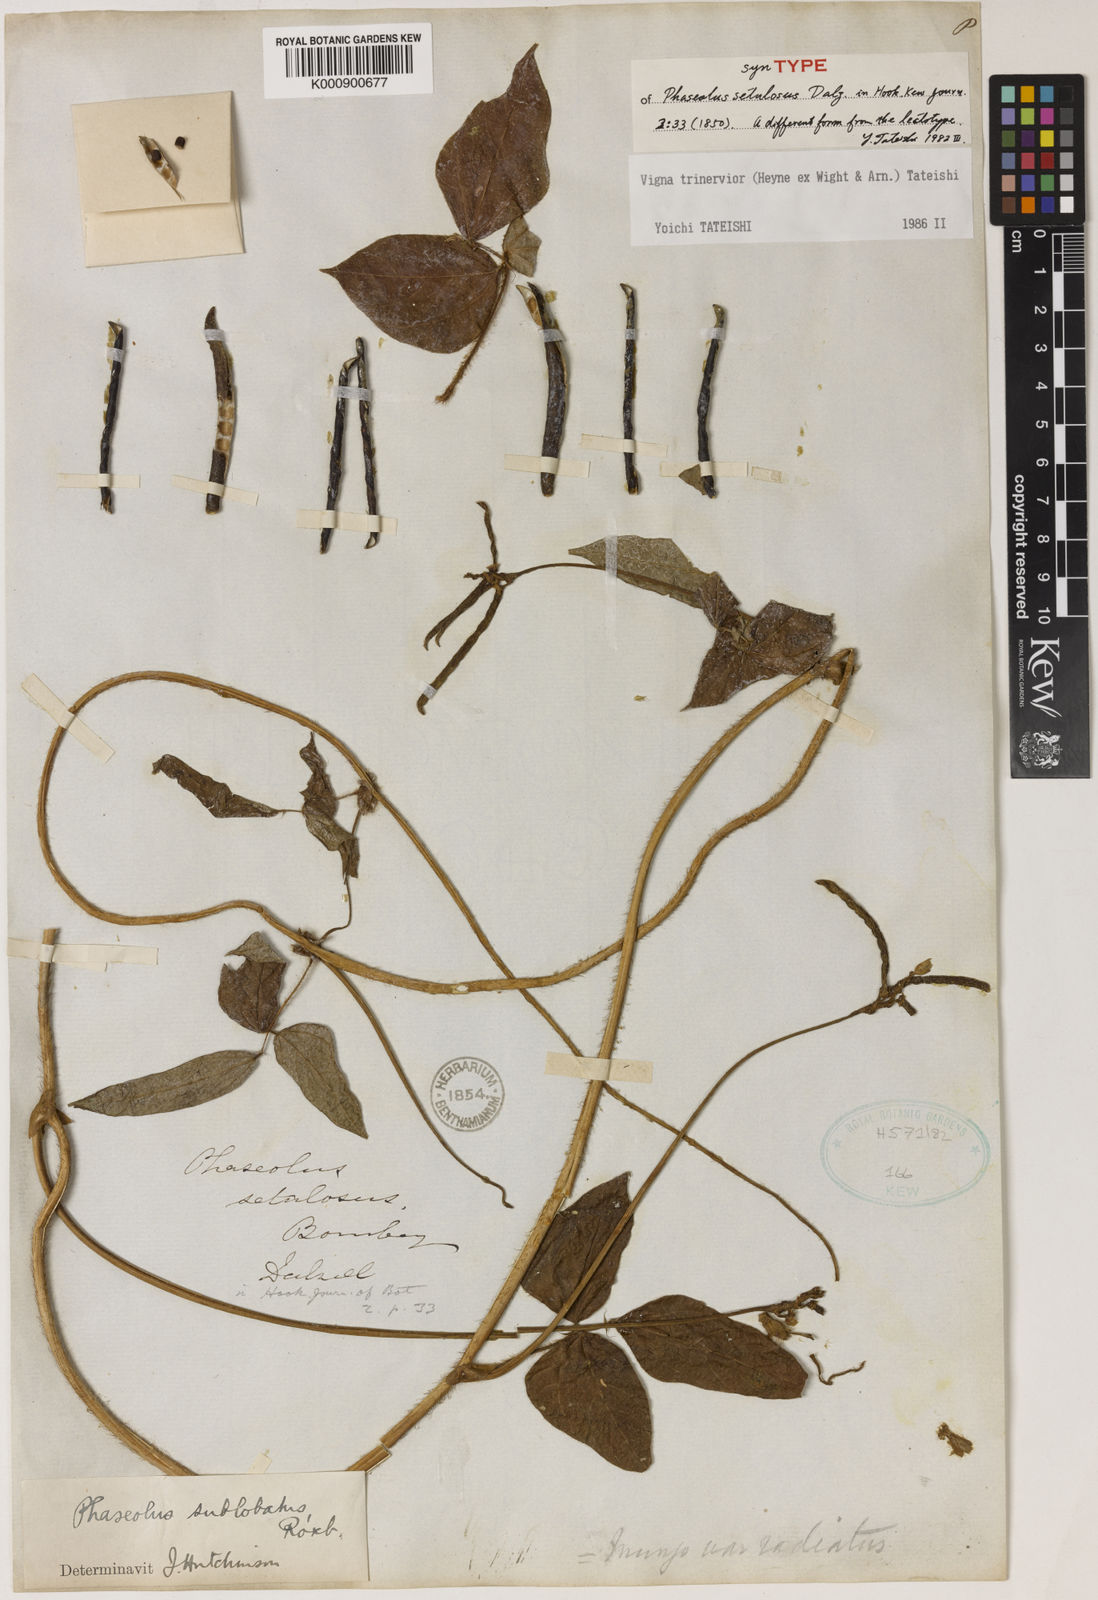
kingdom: Plantae
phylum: Tracheophyta
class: Magnoliopsida
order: Fabales
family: Fabaceae
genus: Vigna
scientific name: Vigna
